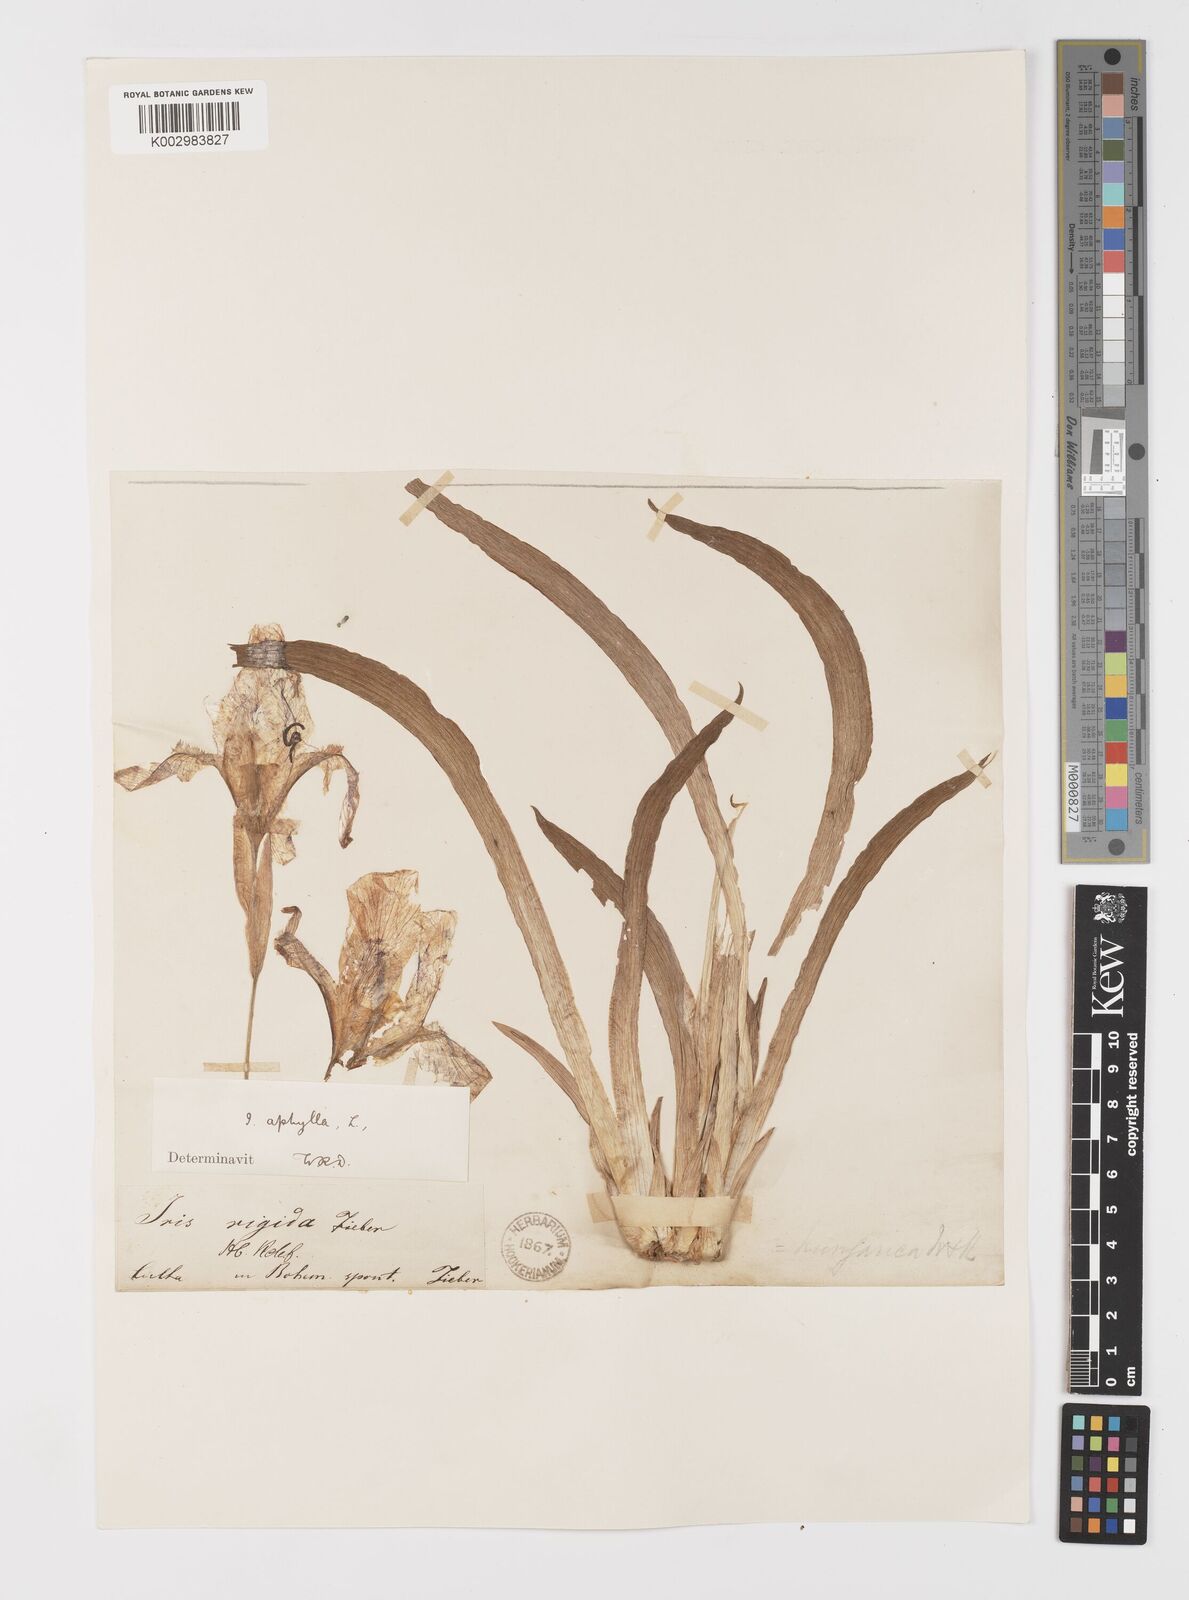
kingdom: Plantae
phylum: Tracheophyta
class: Liliopsida
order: Asparagales
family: Iridaceae
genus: Iris
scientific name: Iris aphylla
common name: Stool iris
